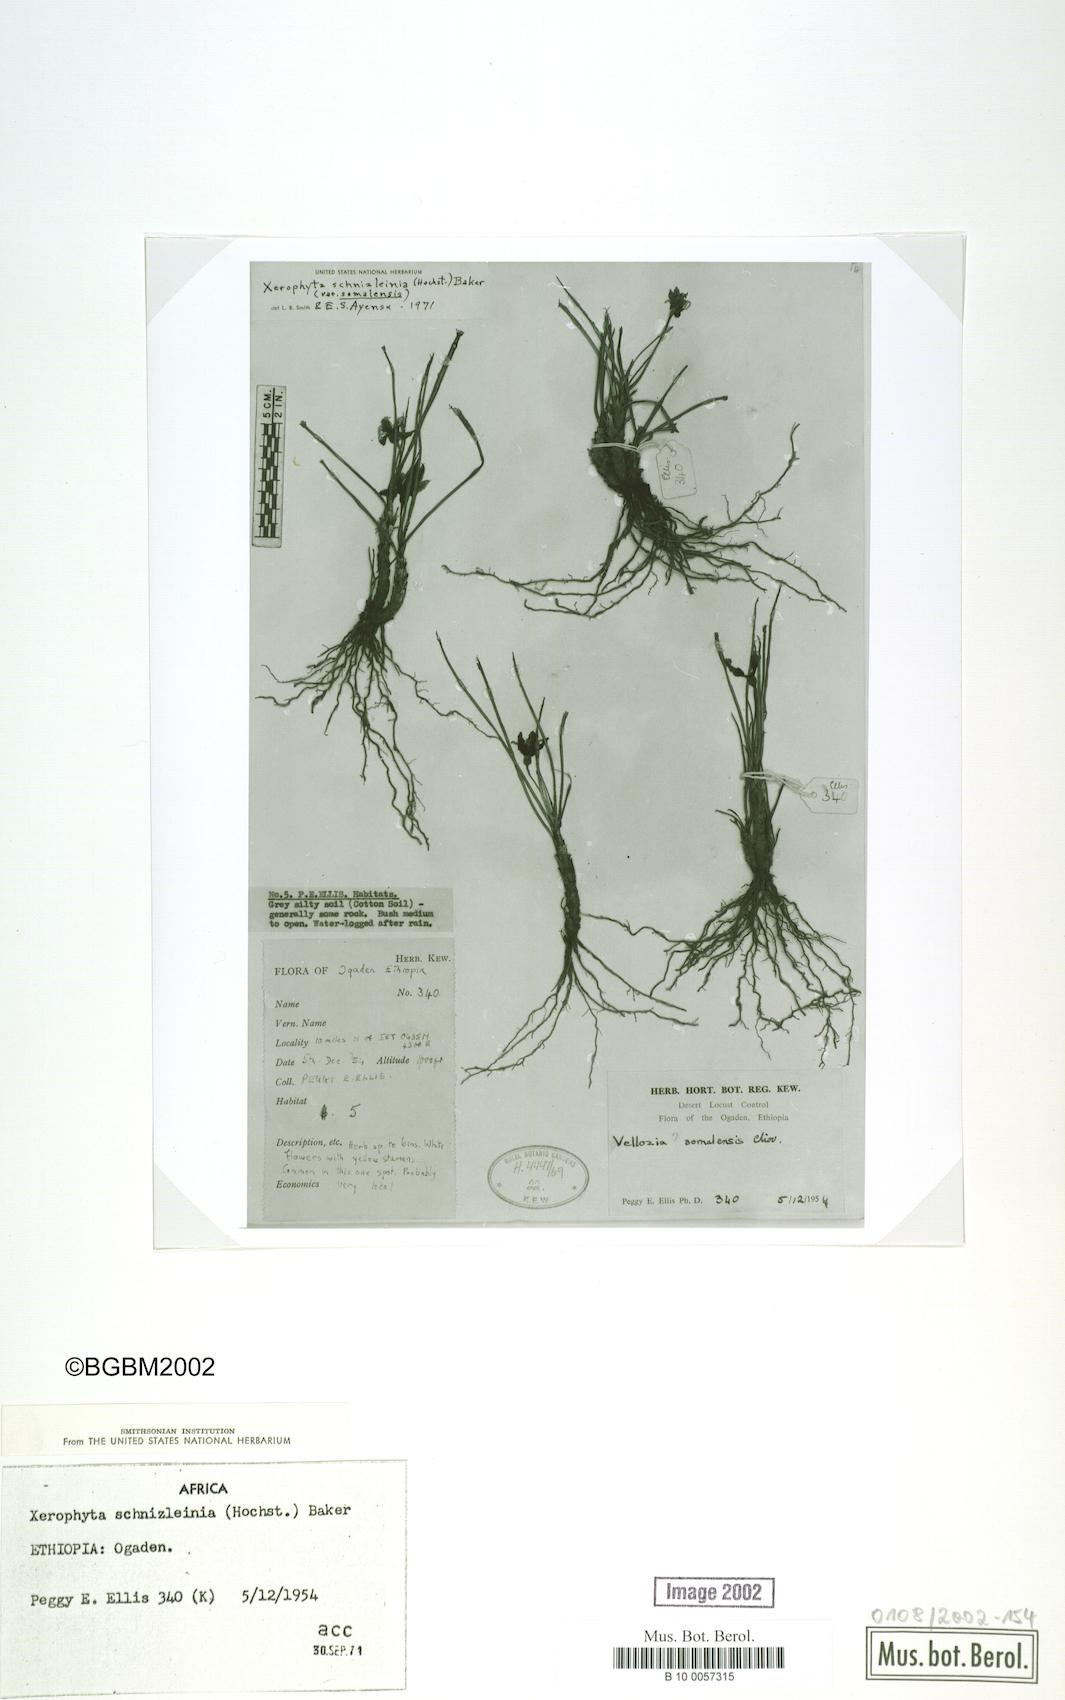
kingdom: Plantae
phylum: Tracheophyta
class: Liliopsida
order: Pandanales
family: Velloziaceae
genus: Xerophyta
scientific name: Xerophyta schnizleinia
